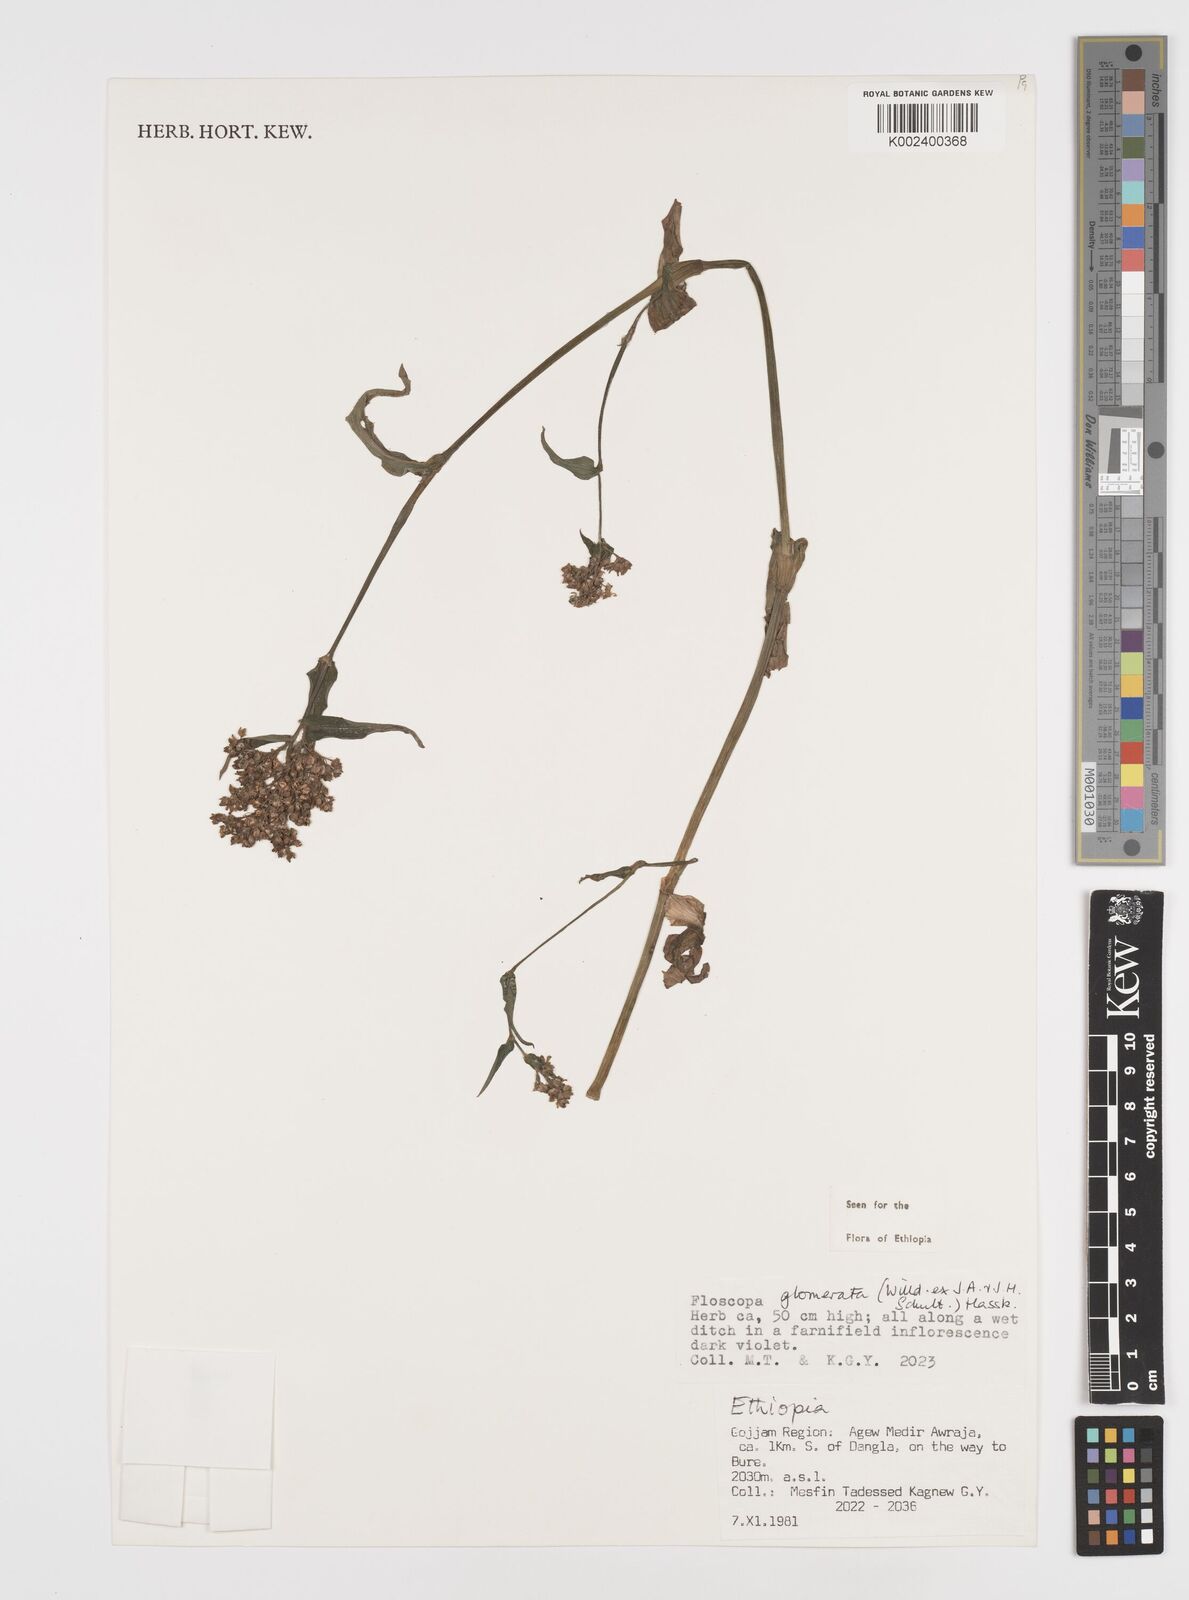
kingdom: Plantae
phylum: Tracheophyta
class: Liliopsida
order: Commelinales
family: Commelinaceae
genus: Floscopa
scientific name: Floscopa glomerata
